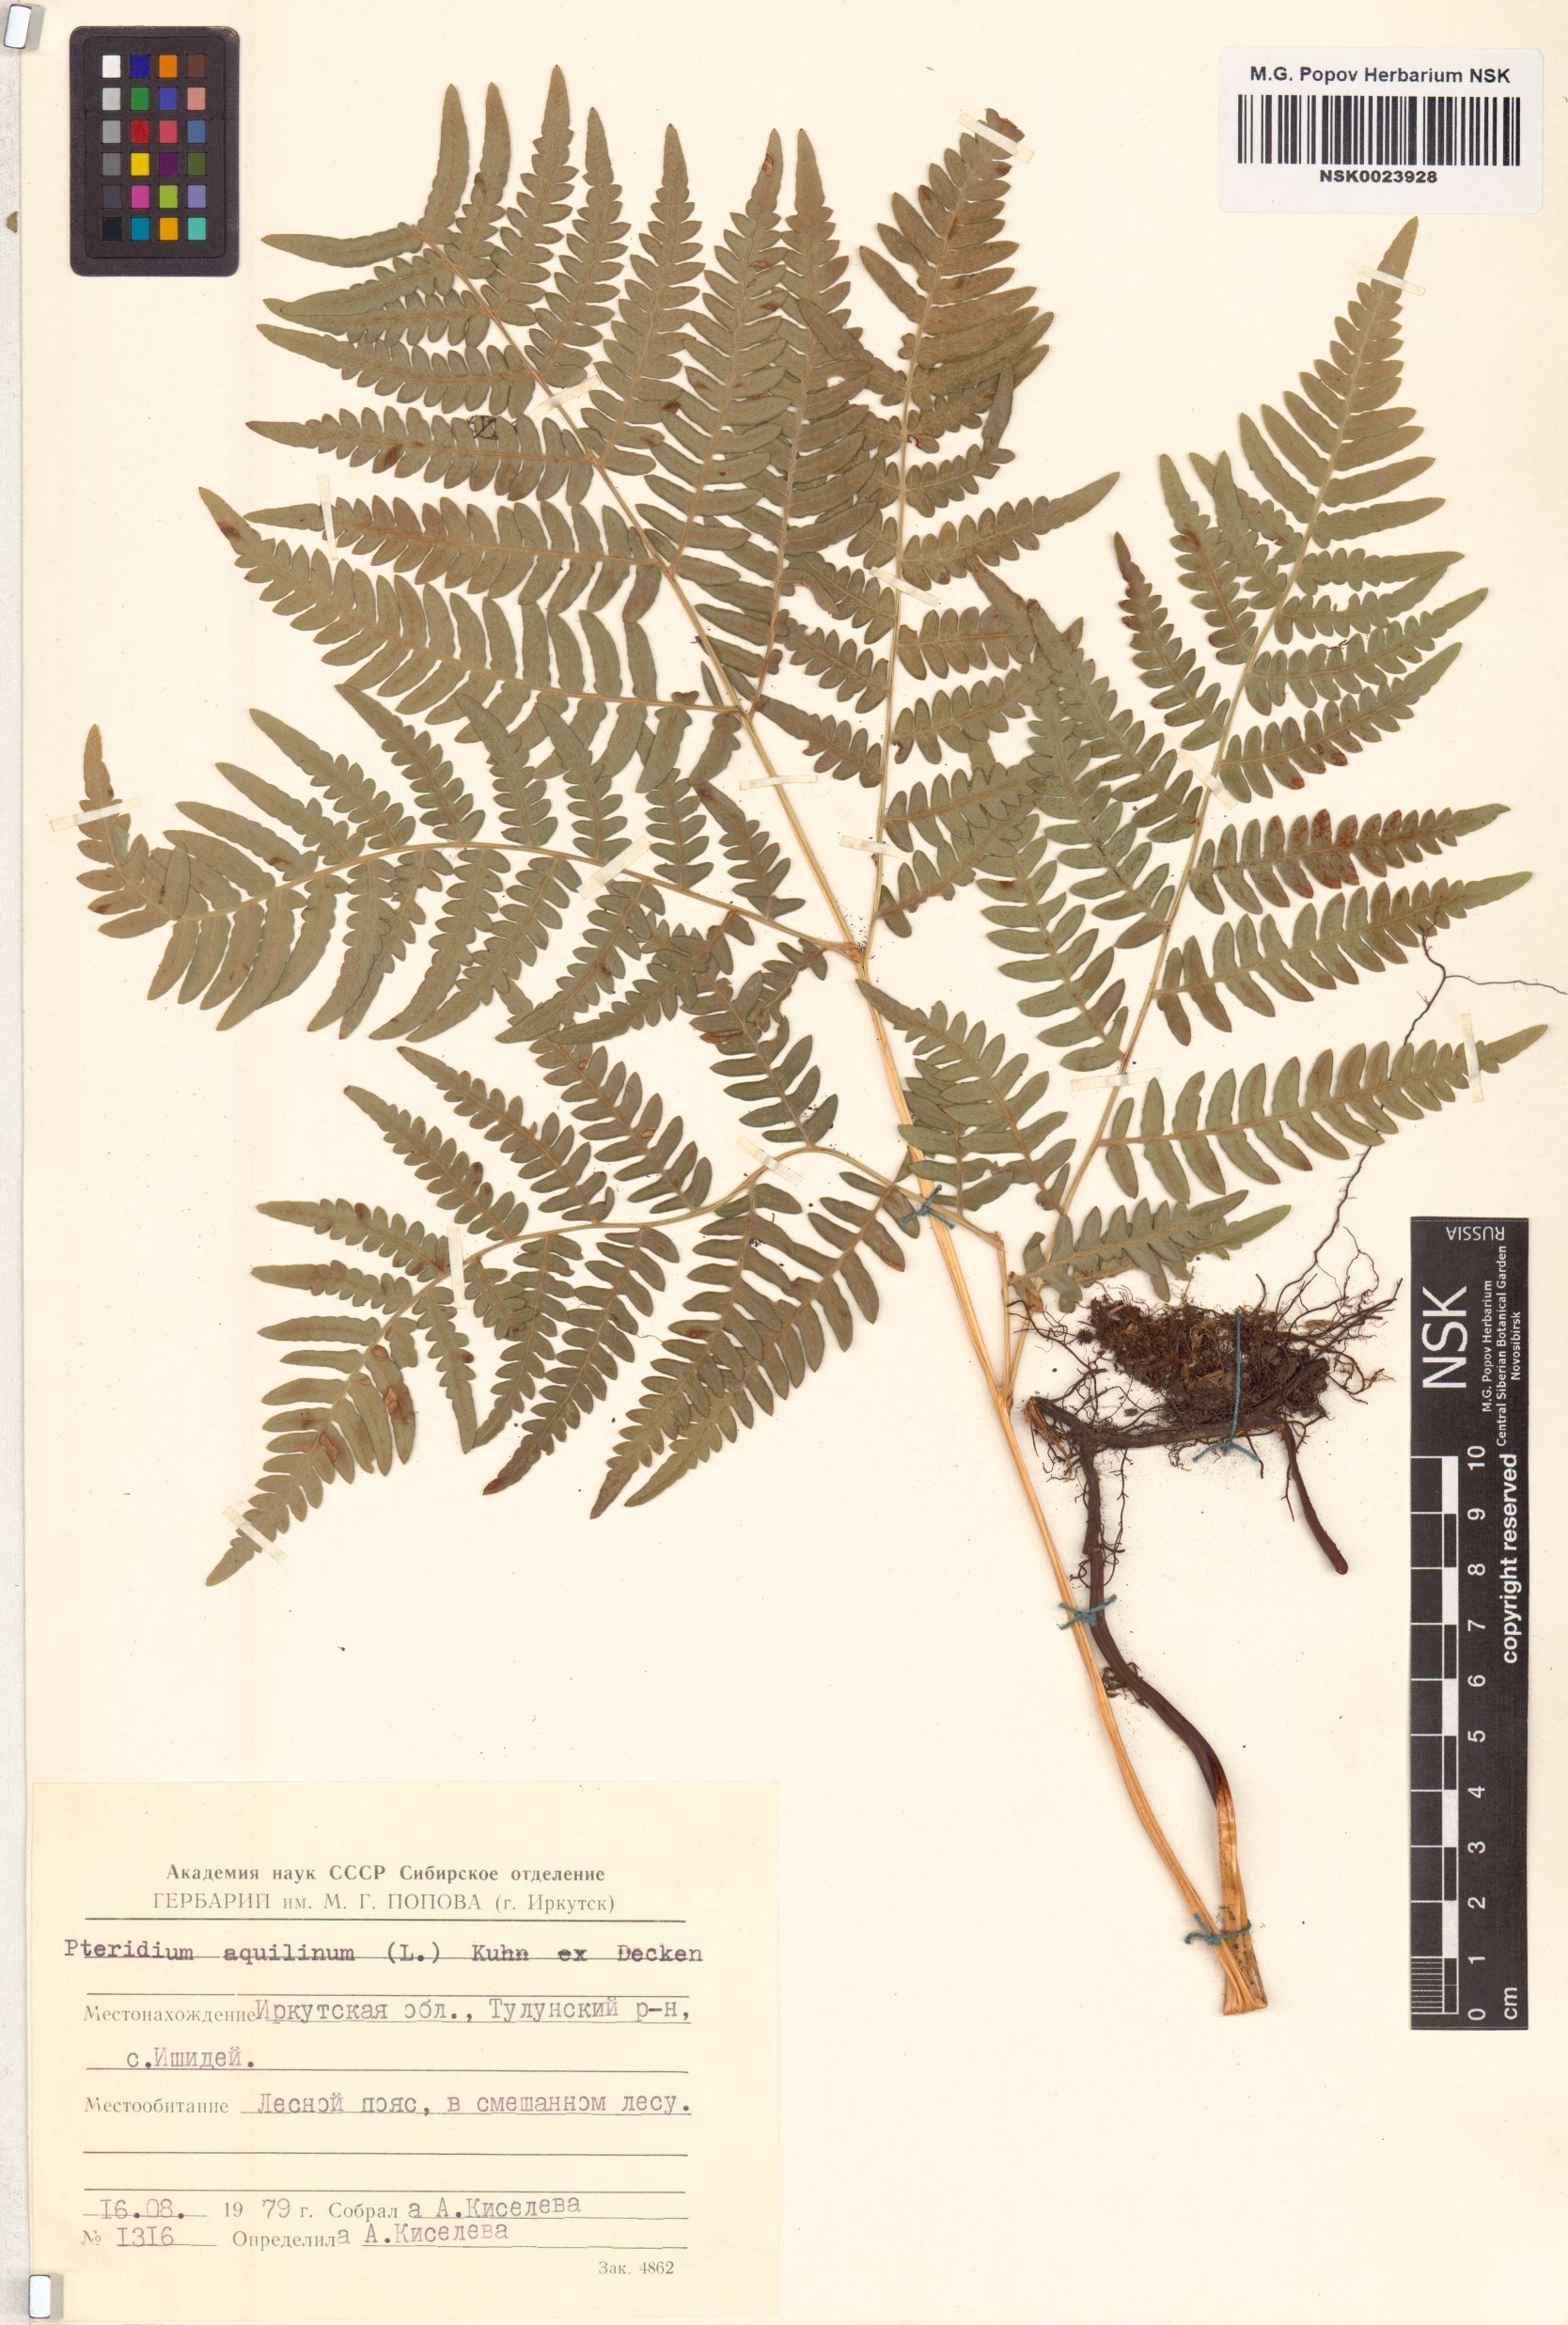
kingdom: Plantae
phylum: Tracheophyta
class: Polypodiopsida
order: Polypodiales
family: Dennstaedtiaceae
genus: Pteridium
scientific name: Pteridium aquilinum
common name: Bracken
